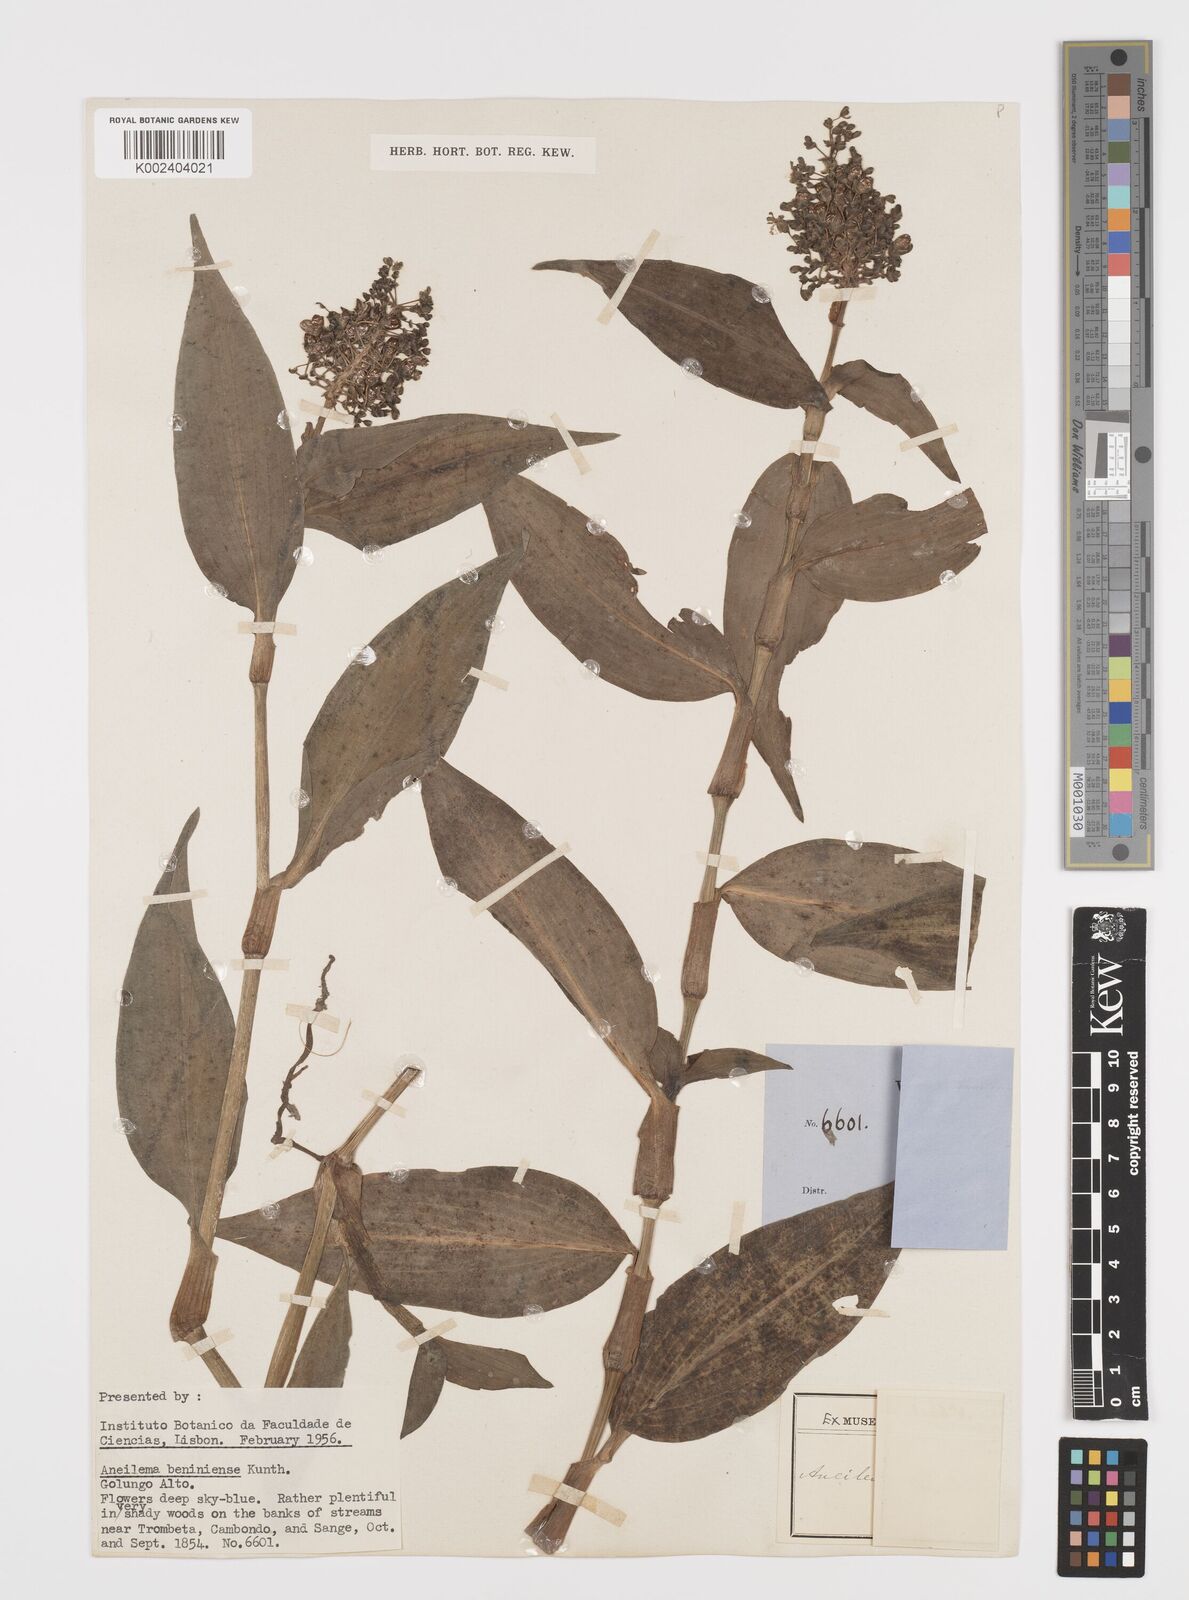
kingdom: Plantae
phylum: Tracheophyta
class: Liliopsida
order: Commelinales
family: Commelinaceae
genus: Aneilema
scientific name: Aneilema beniniense
